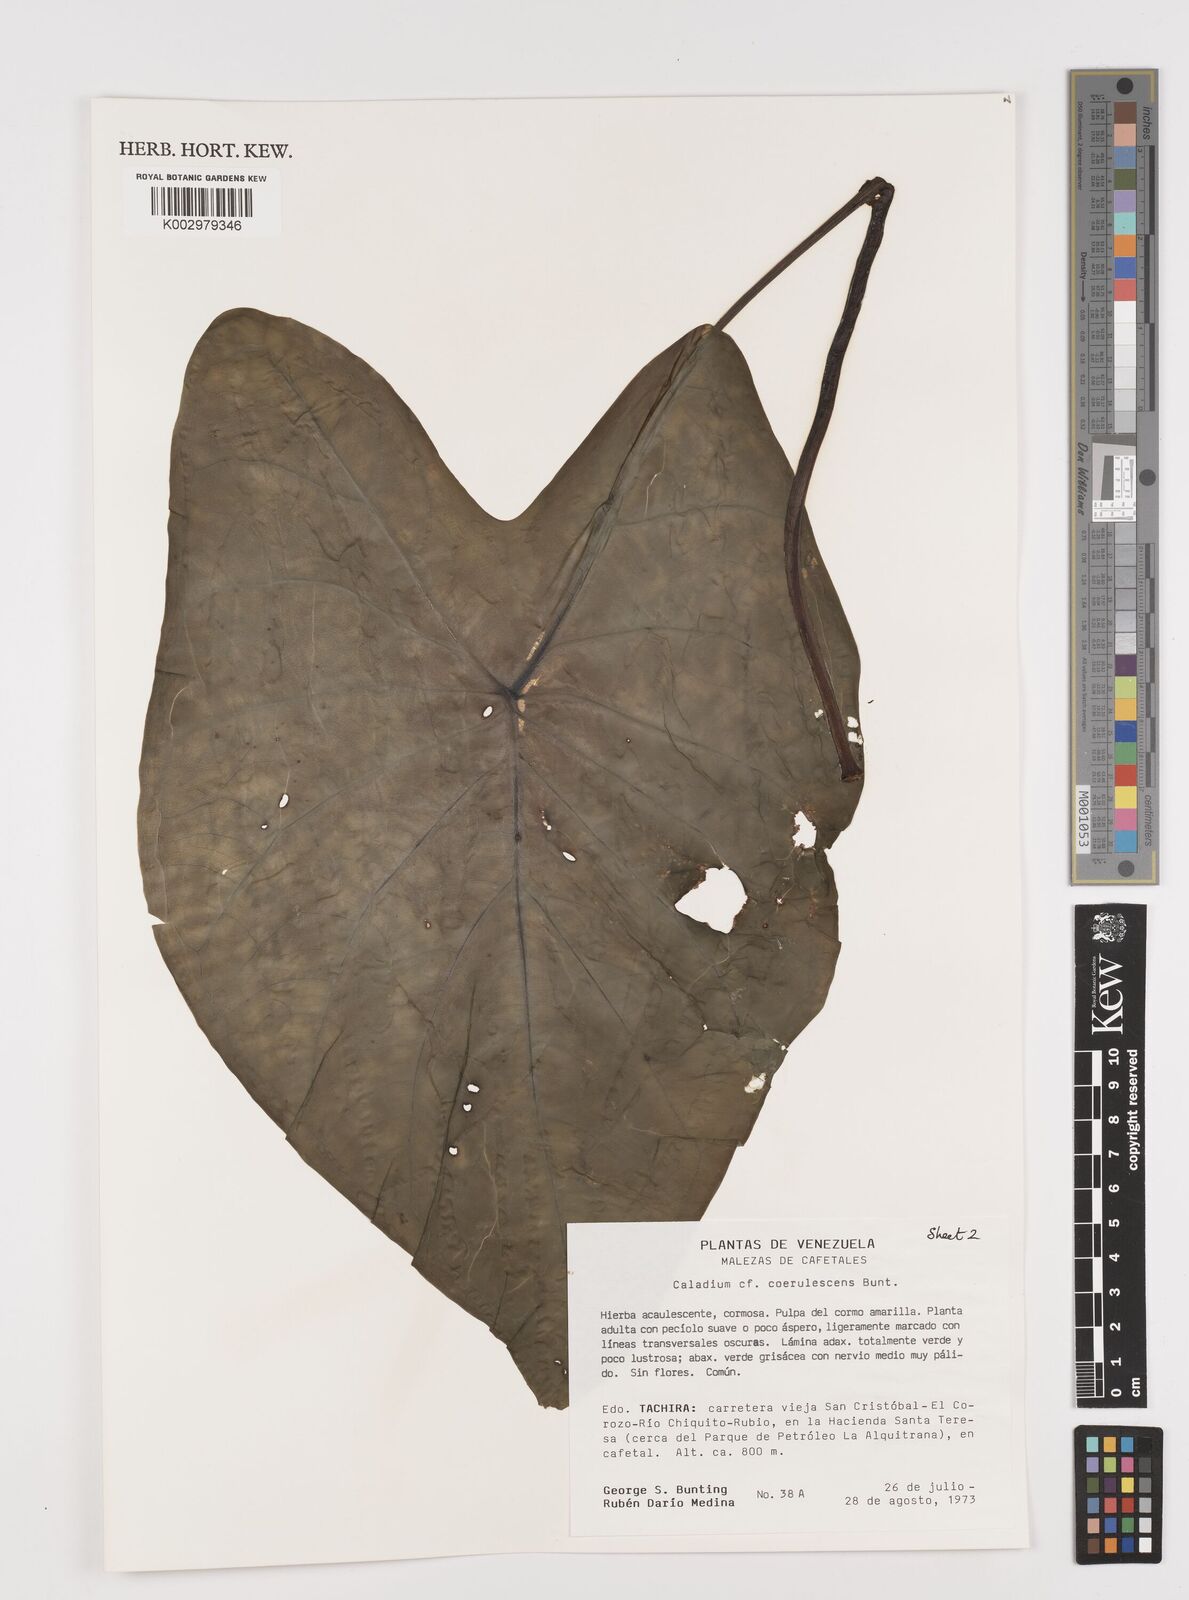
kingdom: Plantae
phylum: Tracheophyta
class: Liliopsida
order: Alismatales
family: Araceae
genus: Caladium
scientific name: Caladium coerulescens
